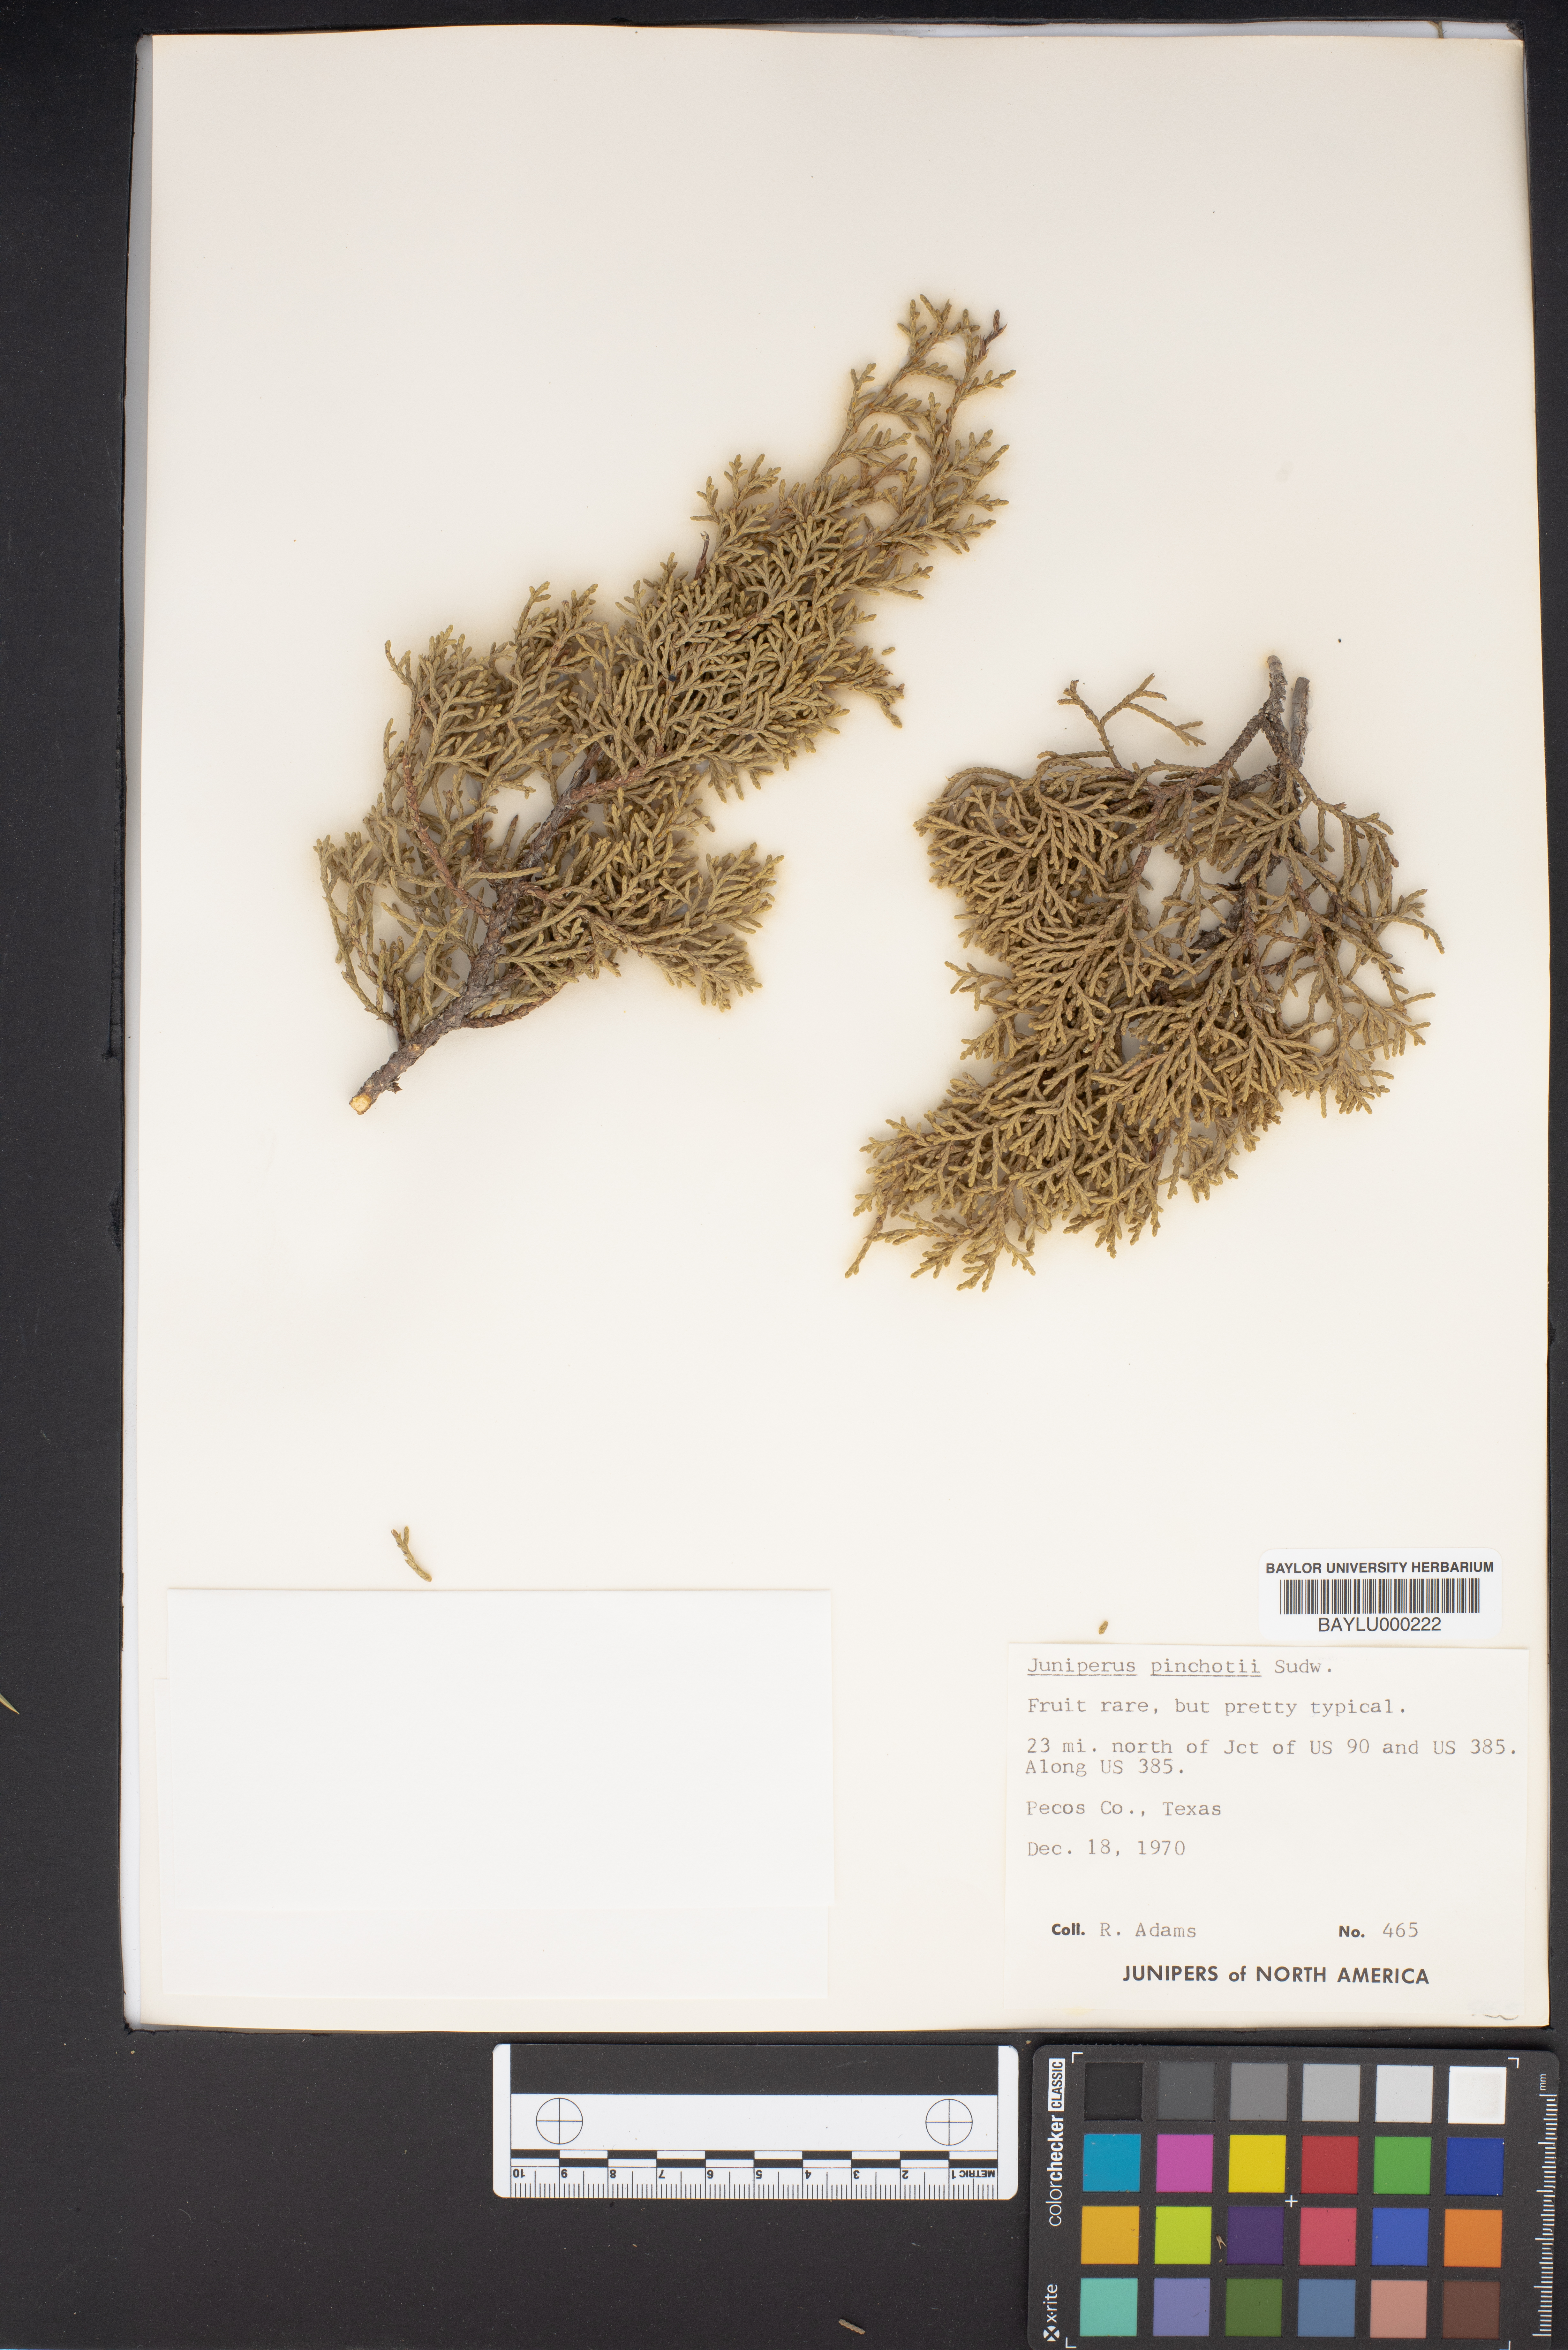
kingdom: Plantae
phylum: Tracheophyta
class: Pinopsida
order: Pinales
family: Cupressaceae
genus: Juniperus
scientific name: Juniperus pinchotii
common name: Pinchot juniper
